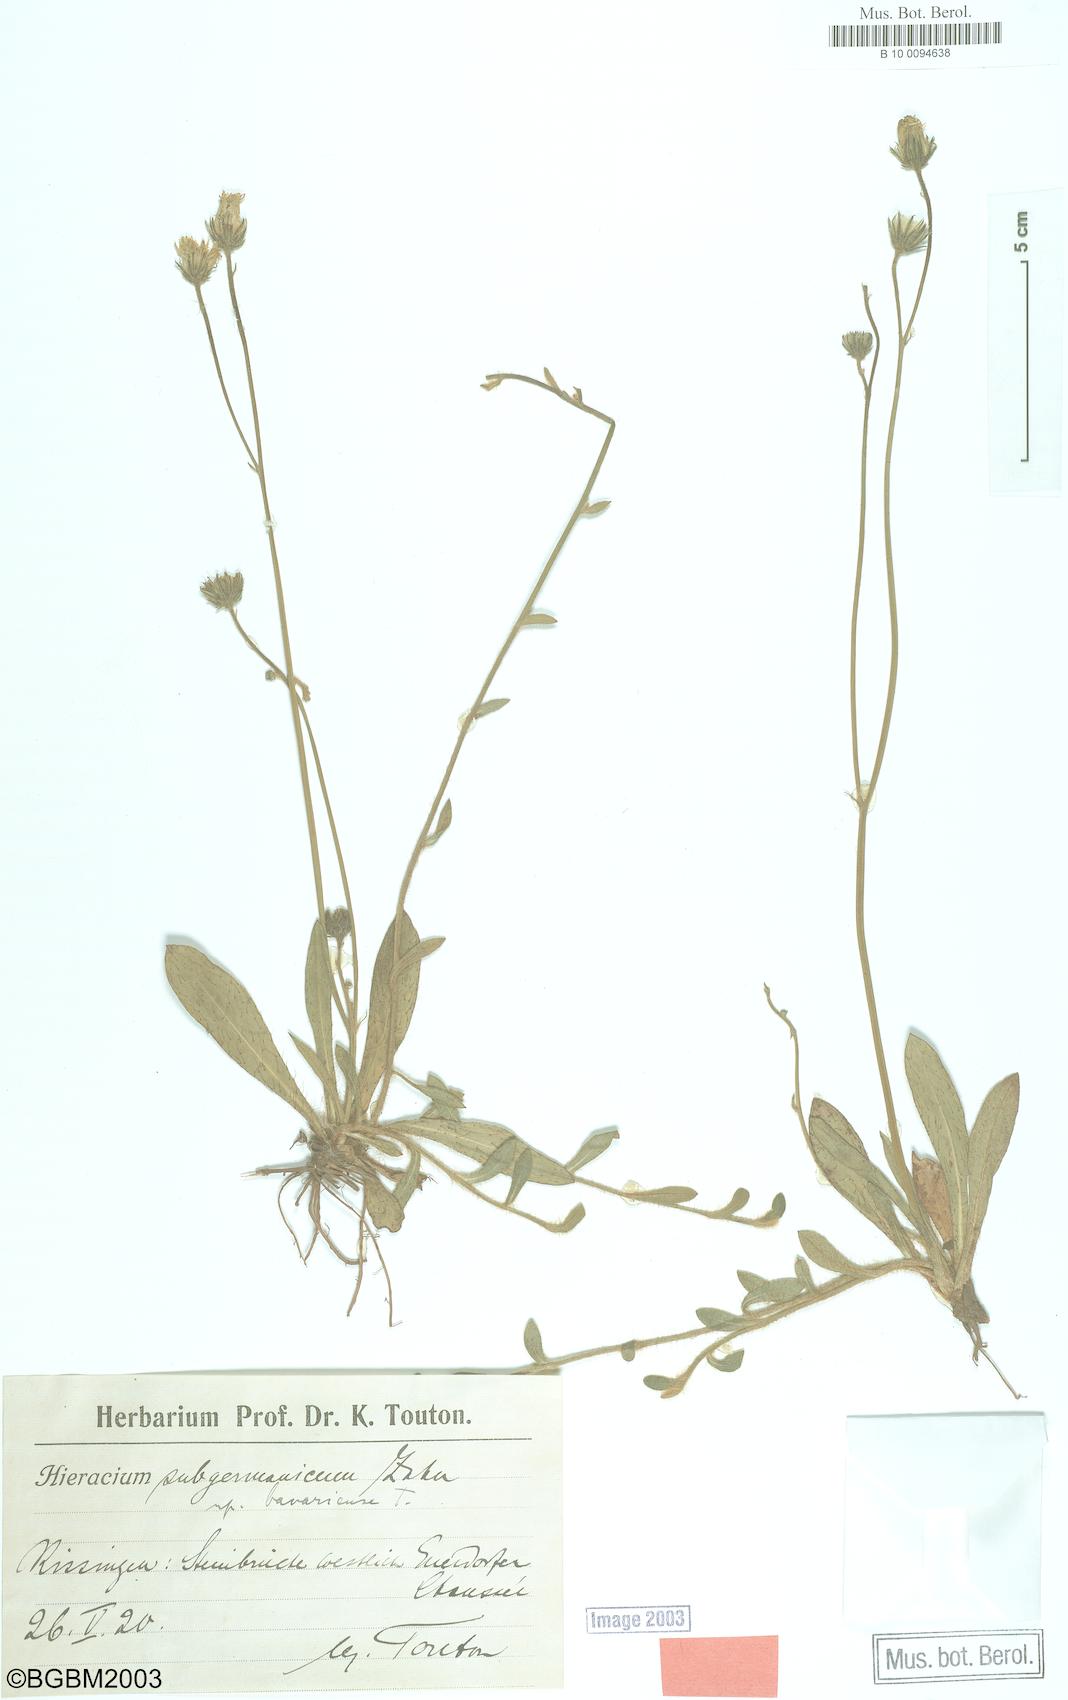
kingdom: Plantae
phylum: Tracheophyta
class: Magnoliopsida
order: Asterales
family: Asteraceae
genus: Pilosella
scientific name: Pilosella pilosellina
